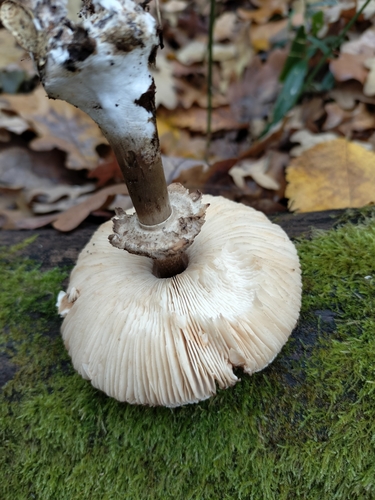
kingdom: Fungi
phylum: Basidiomycota
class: Agaricomycetes
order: Agaricales
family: Agaricaceae
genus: Chlorophyllum
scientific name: Chlorophyllum rhacodes
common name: Shaggy parasol
